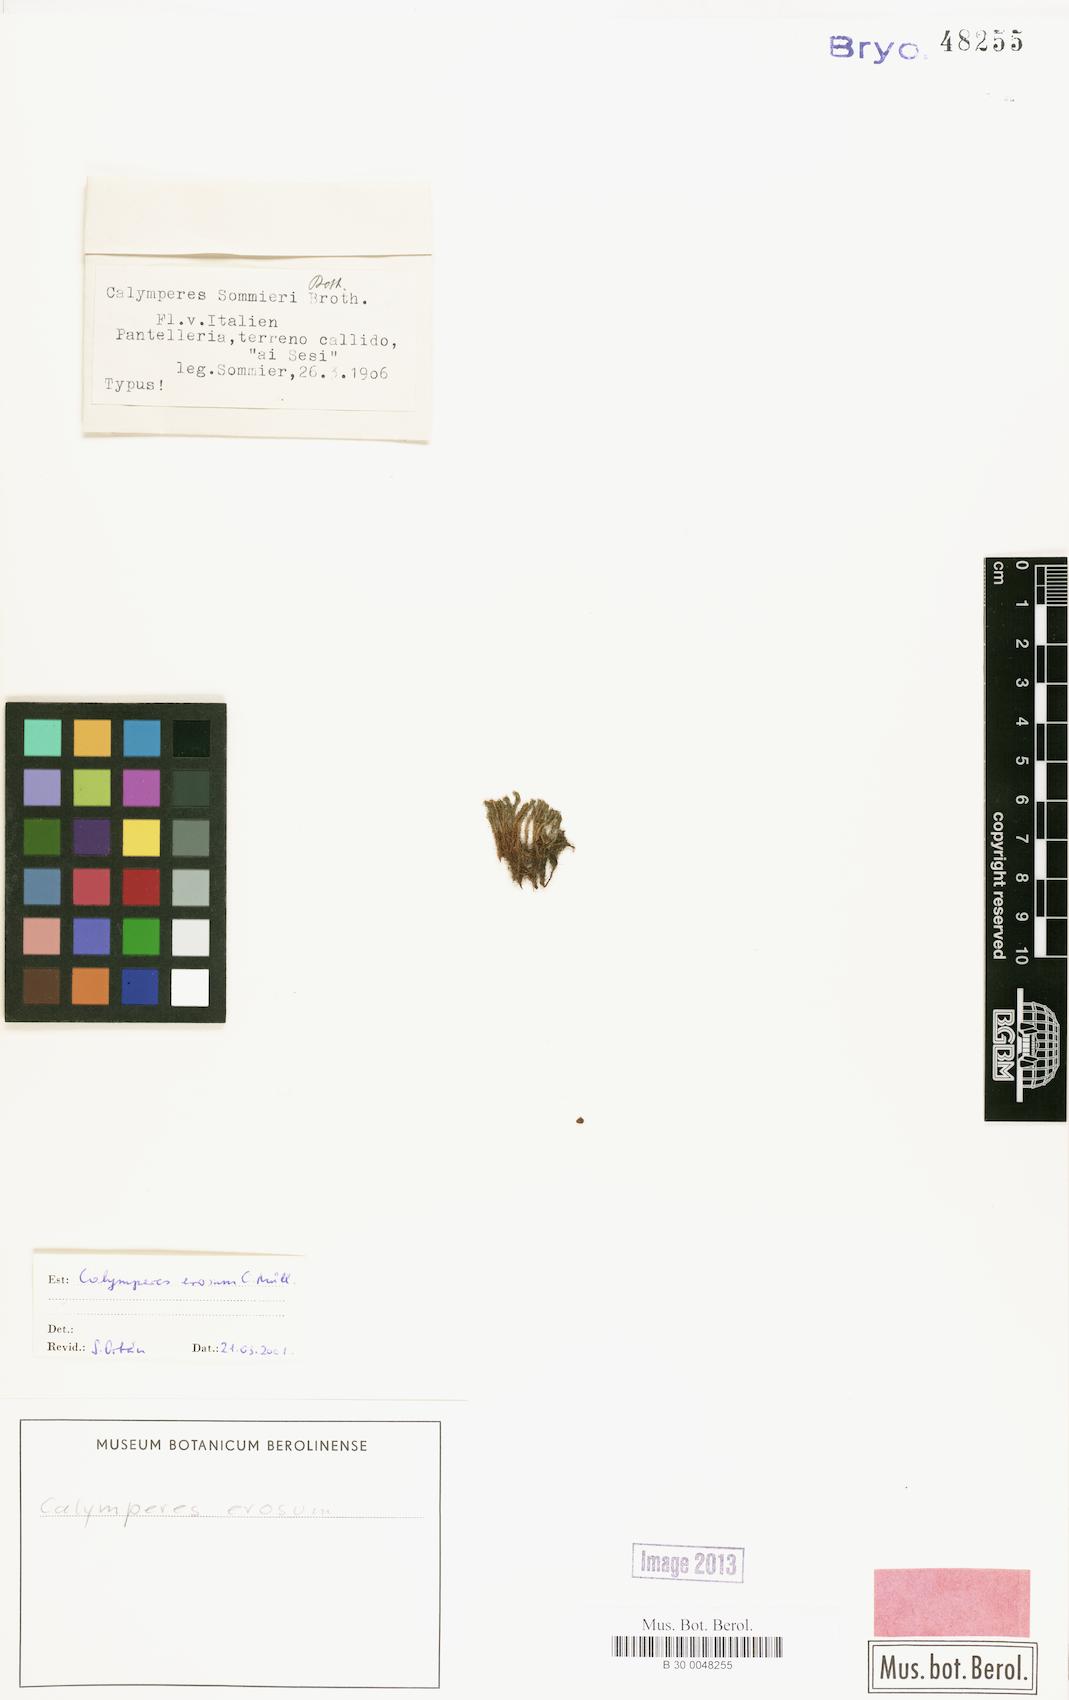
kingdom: Plantae
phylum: Bryophyta
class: Bryopsida
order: Dicranales
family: Calymperaceae
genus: Calymperes
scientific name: Calymperes erosum
